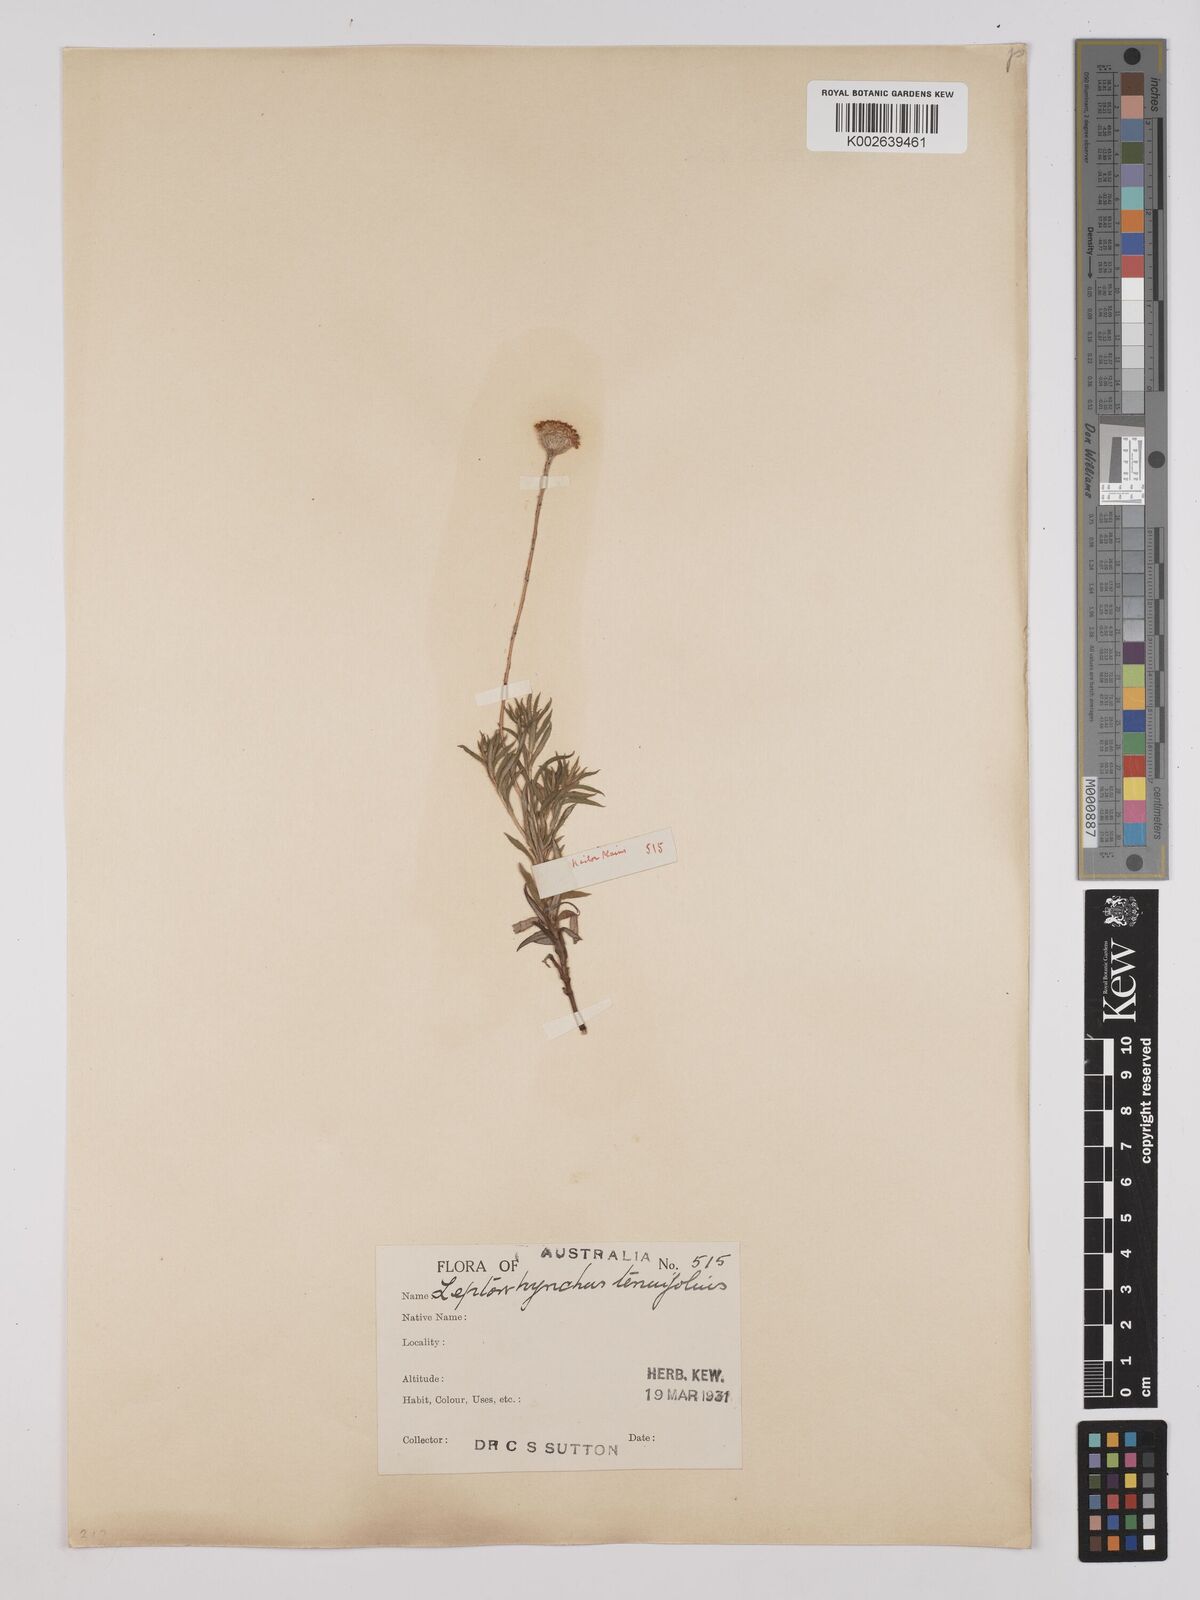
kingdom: Plantae
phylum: Tracheophyta
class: Magnoliopsida
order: Asterales
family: Asteraceae
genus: Leptorhynchos
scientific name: Leptorhynchos squamatus
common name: Scaly-buttons
